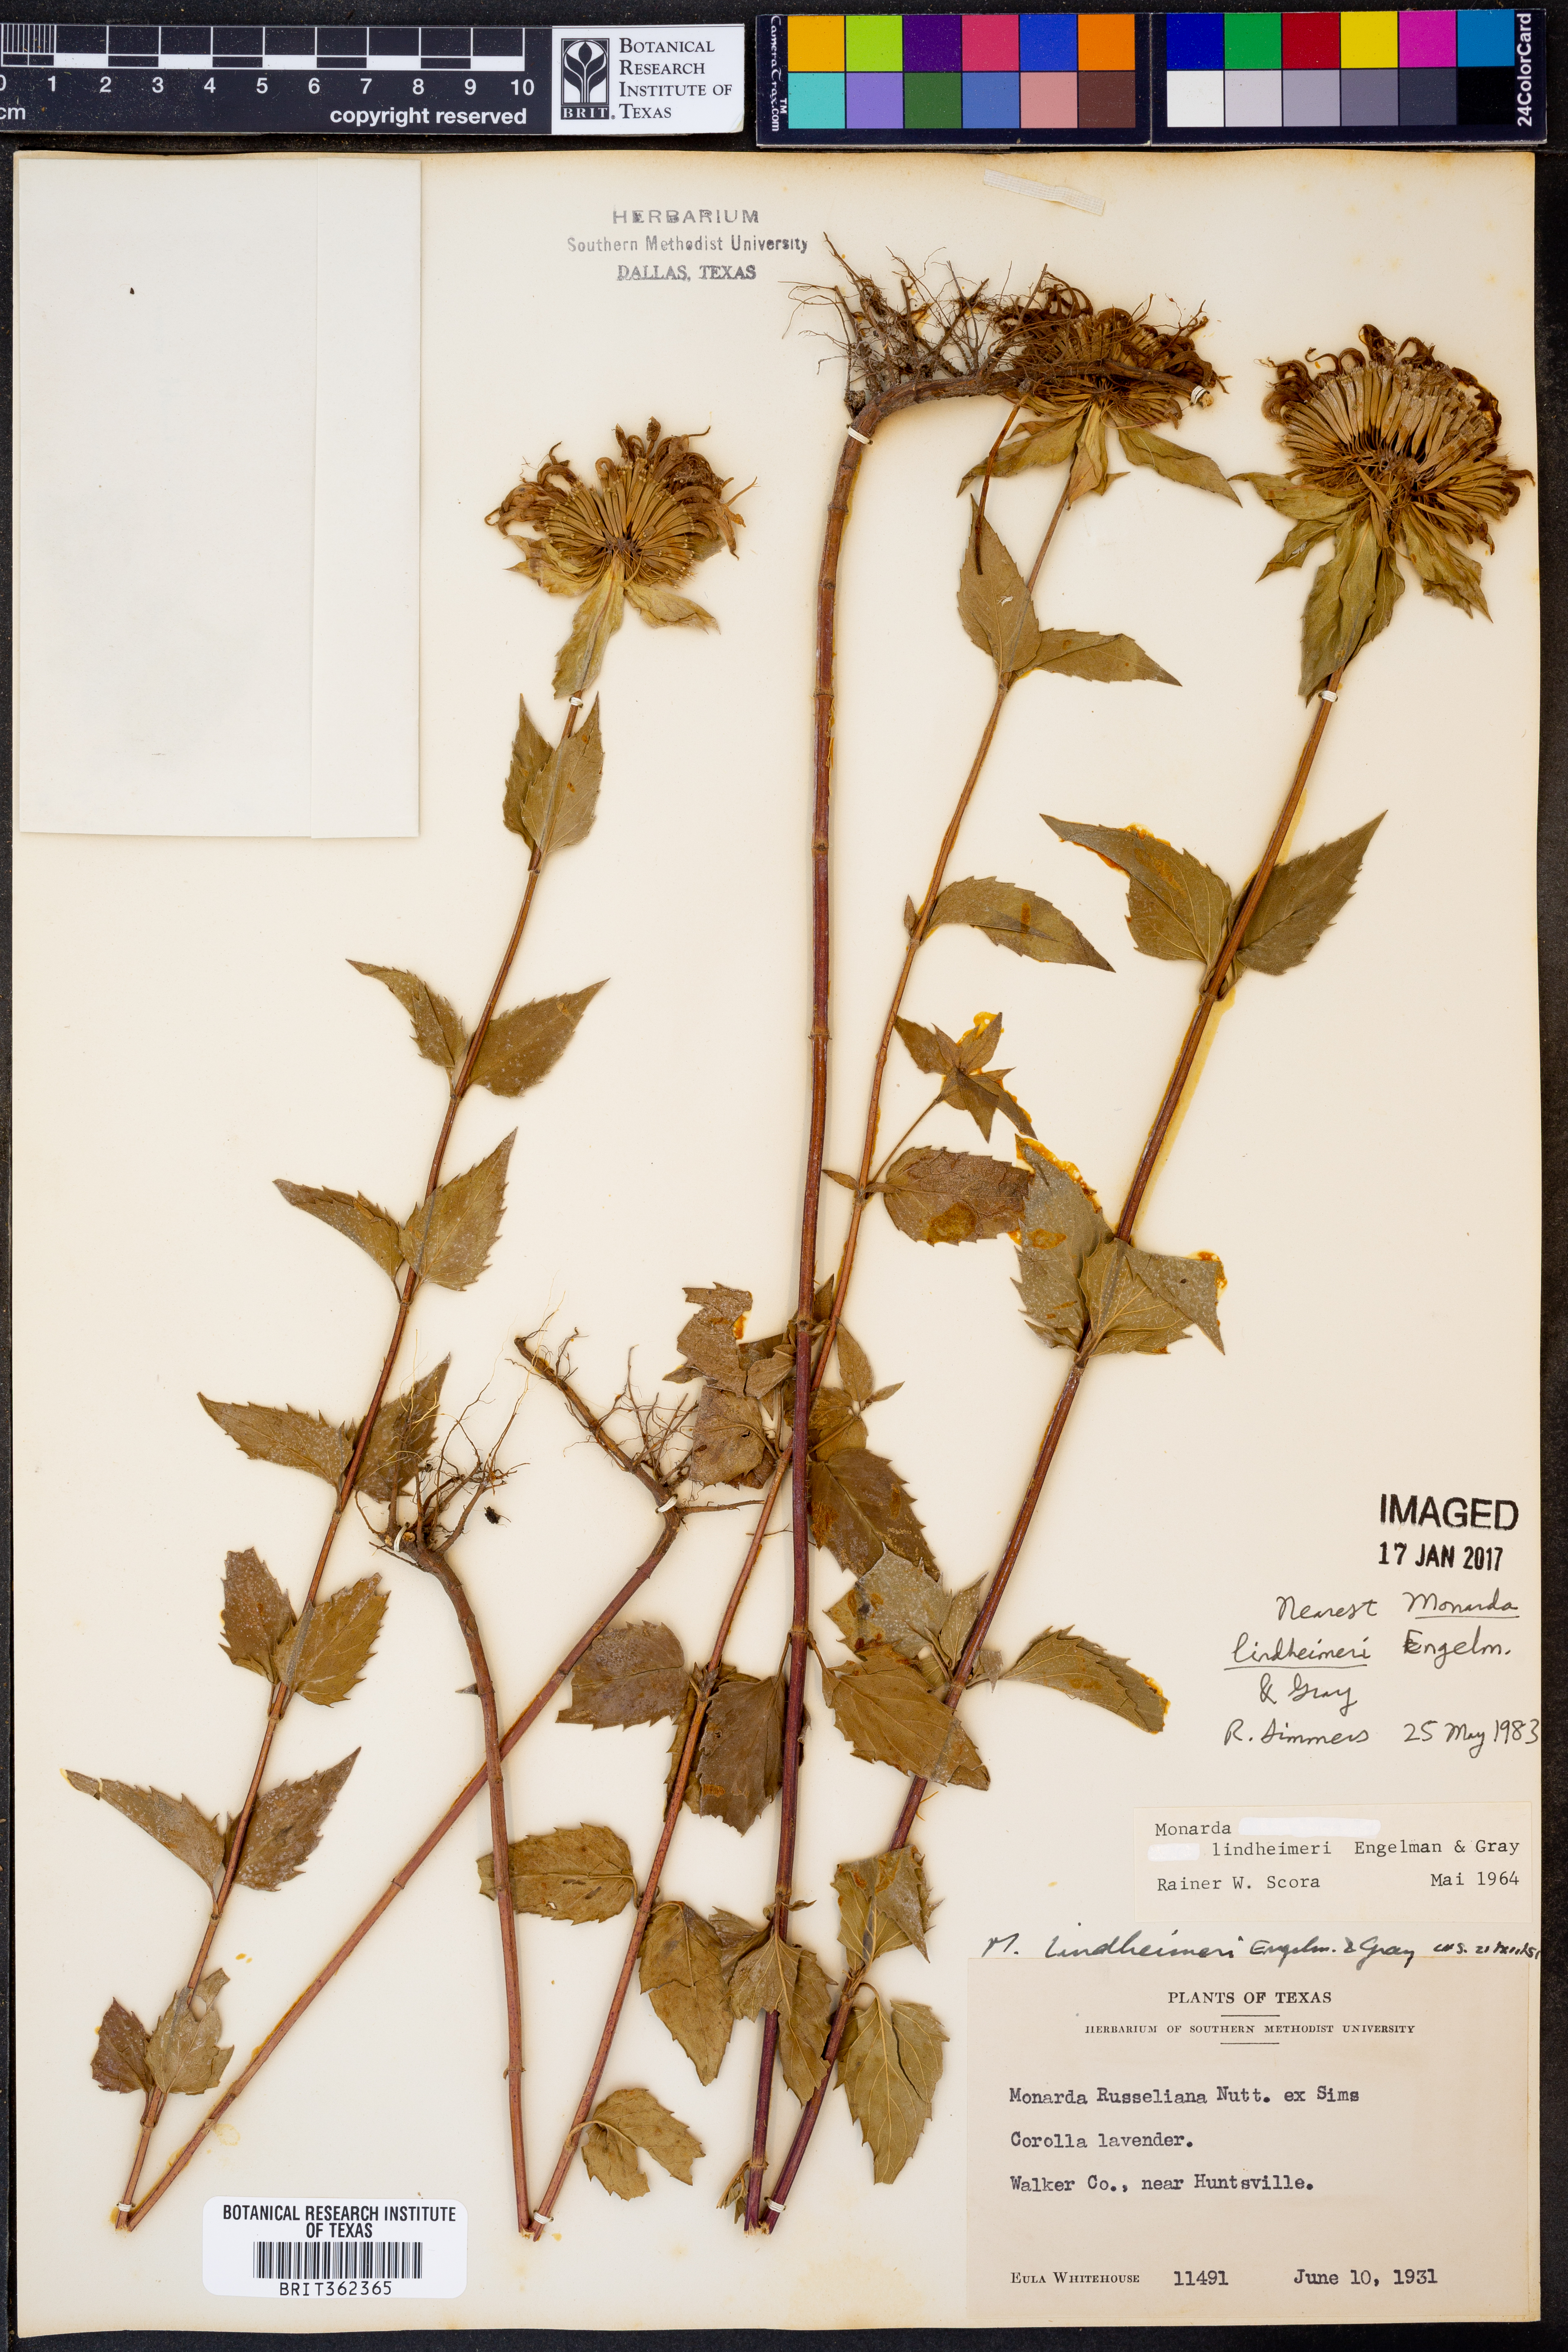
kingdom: Plantae
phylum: Tracheophyta
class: Magnoliopsida
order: Lamiales
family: Lamiaceae
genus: Monarda
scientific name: Monarda lindheimeri
